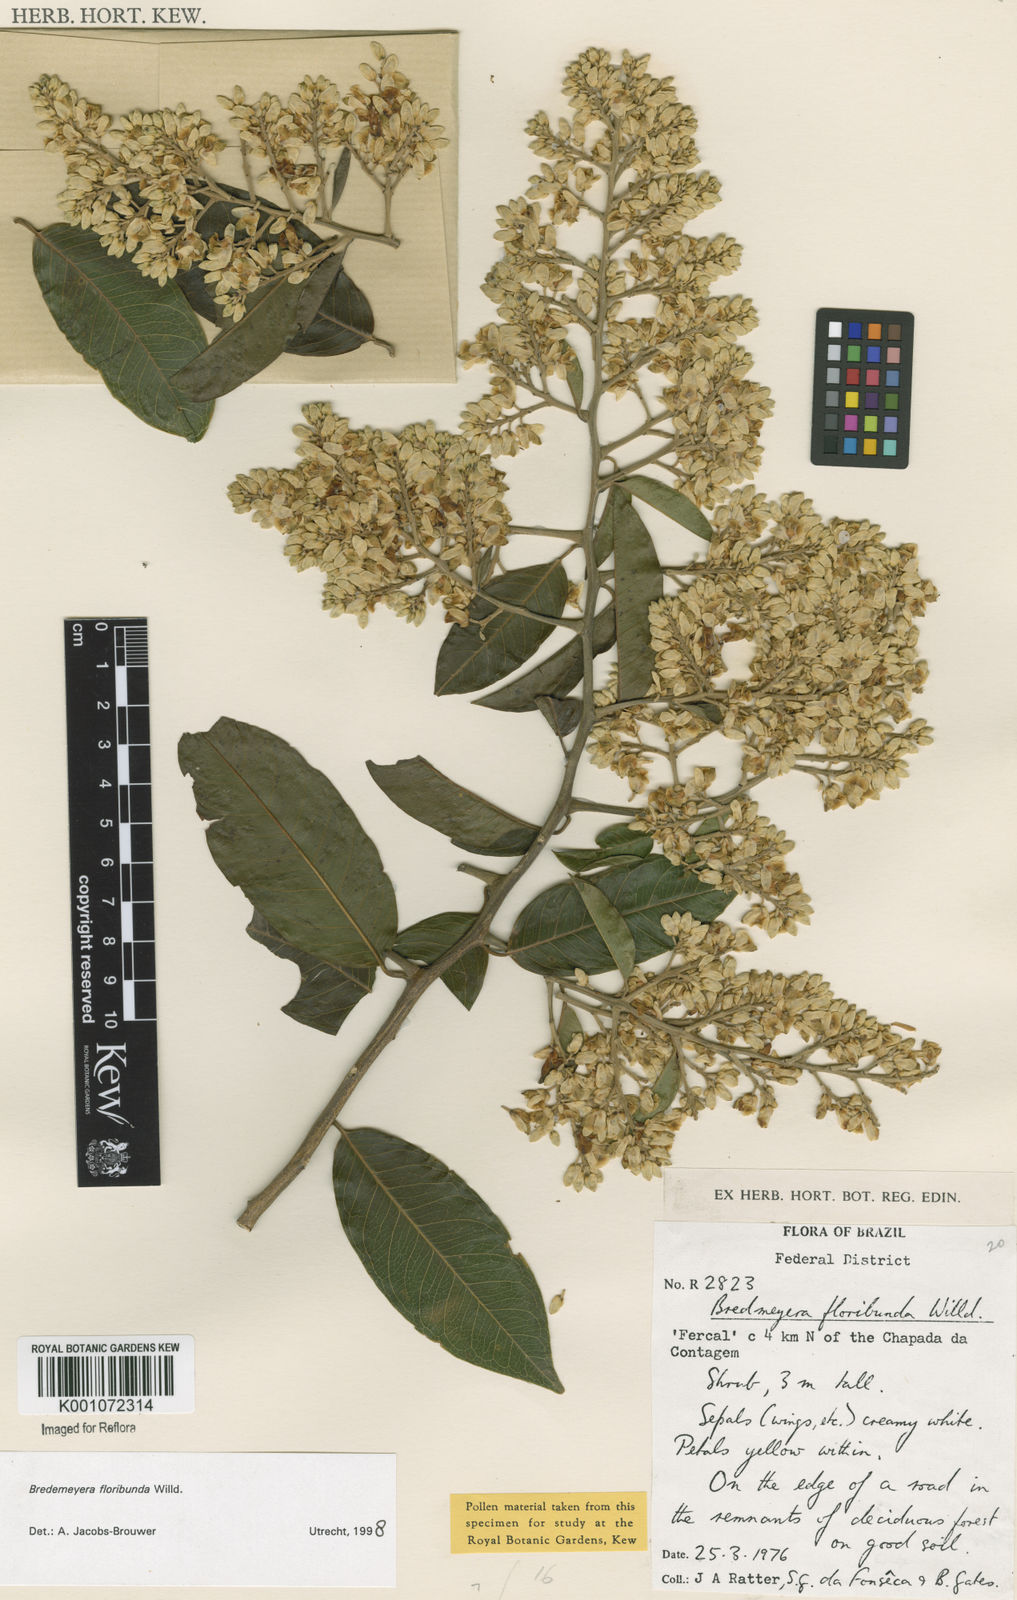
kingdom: Plantae
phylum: Tracheophyta
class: Magnoliopsida
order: Fabales
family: Polygalaceae
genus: Bredemeyera
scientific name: Bredemeyera floribunda
